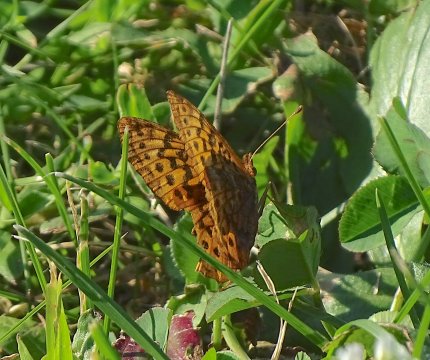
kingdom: Animalia
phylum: Arthropoda
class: Insecta
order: Lepidoptera
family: Nymphalidae
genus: Clossiana
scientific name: Clossiana toddi
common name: Meadow Fritillary
